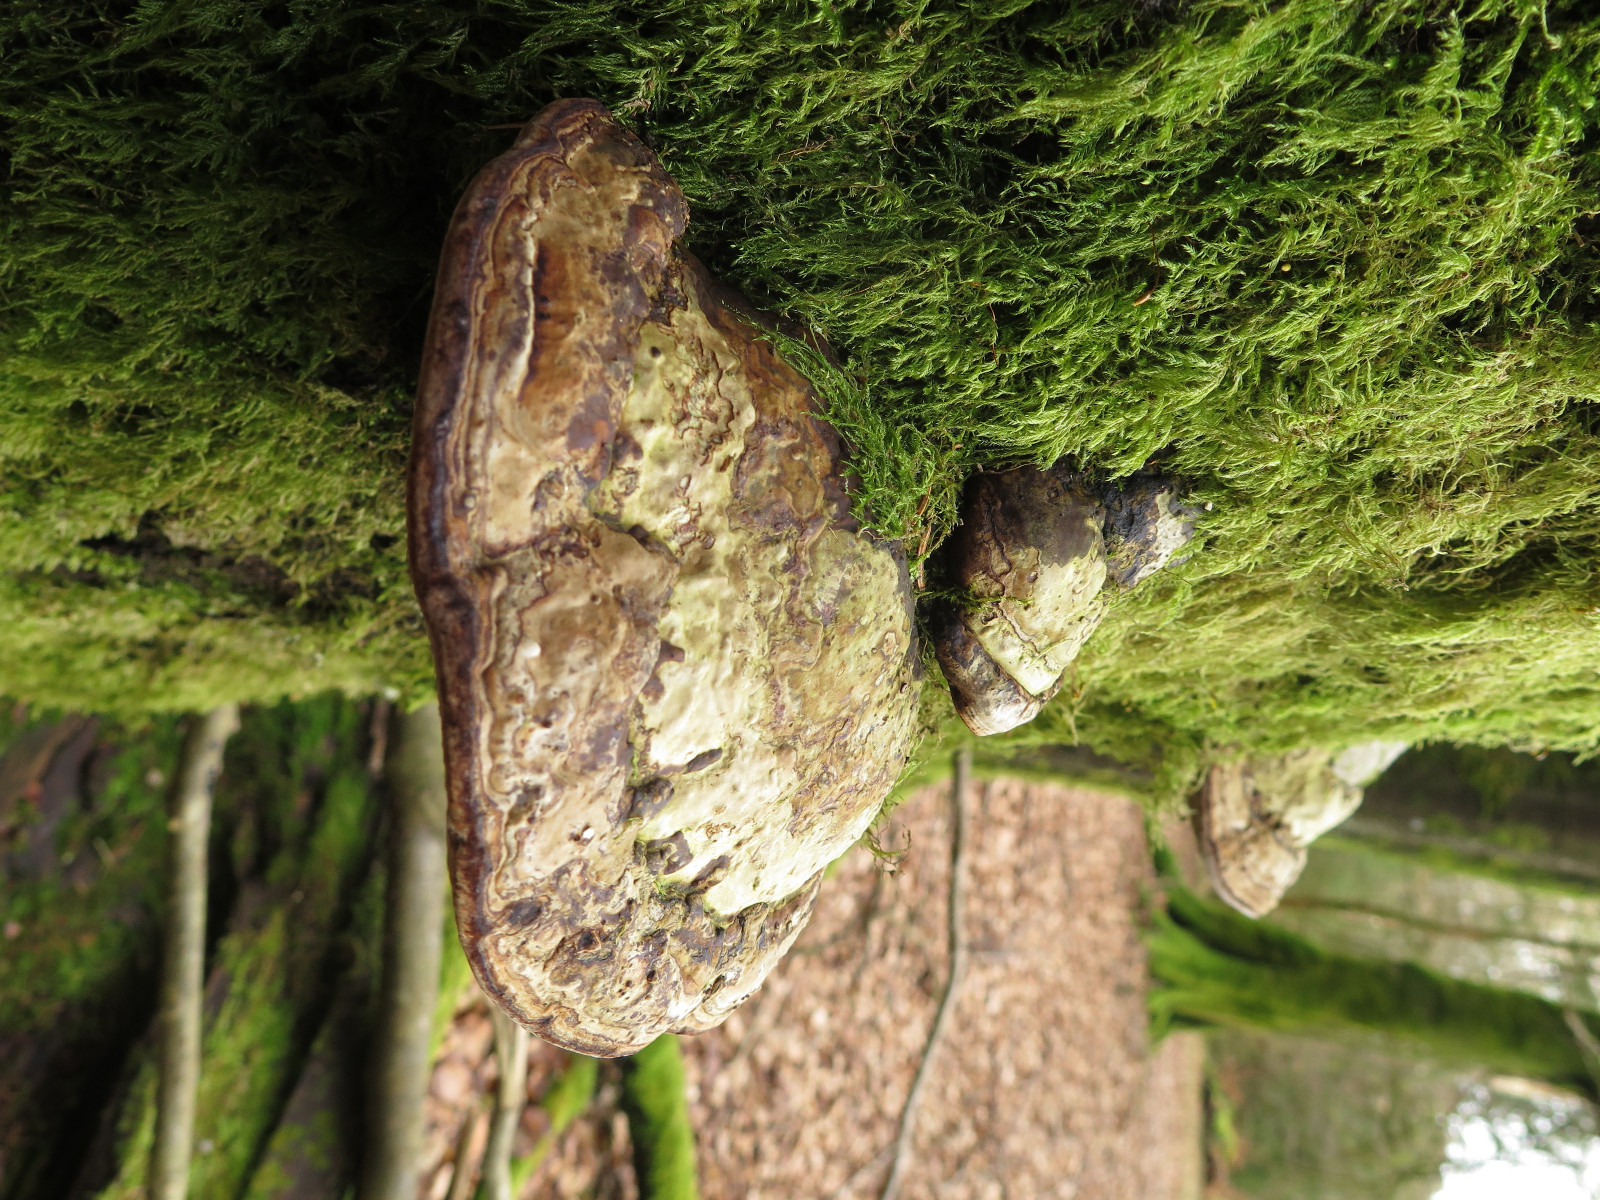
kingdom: Fungi
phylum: Basidiomycota
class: Agaricomycetes
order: Polyporales
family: Polyporaceae
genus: Fomes
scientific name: Fomes fomentarius
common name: tøndersvamp
